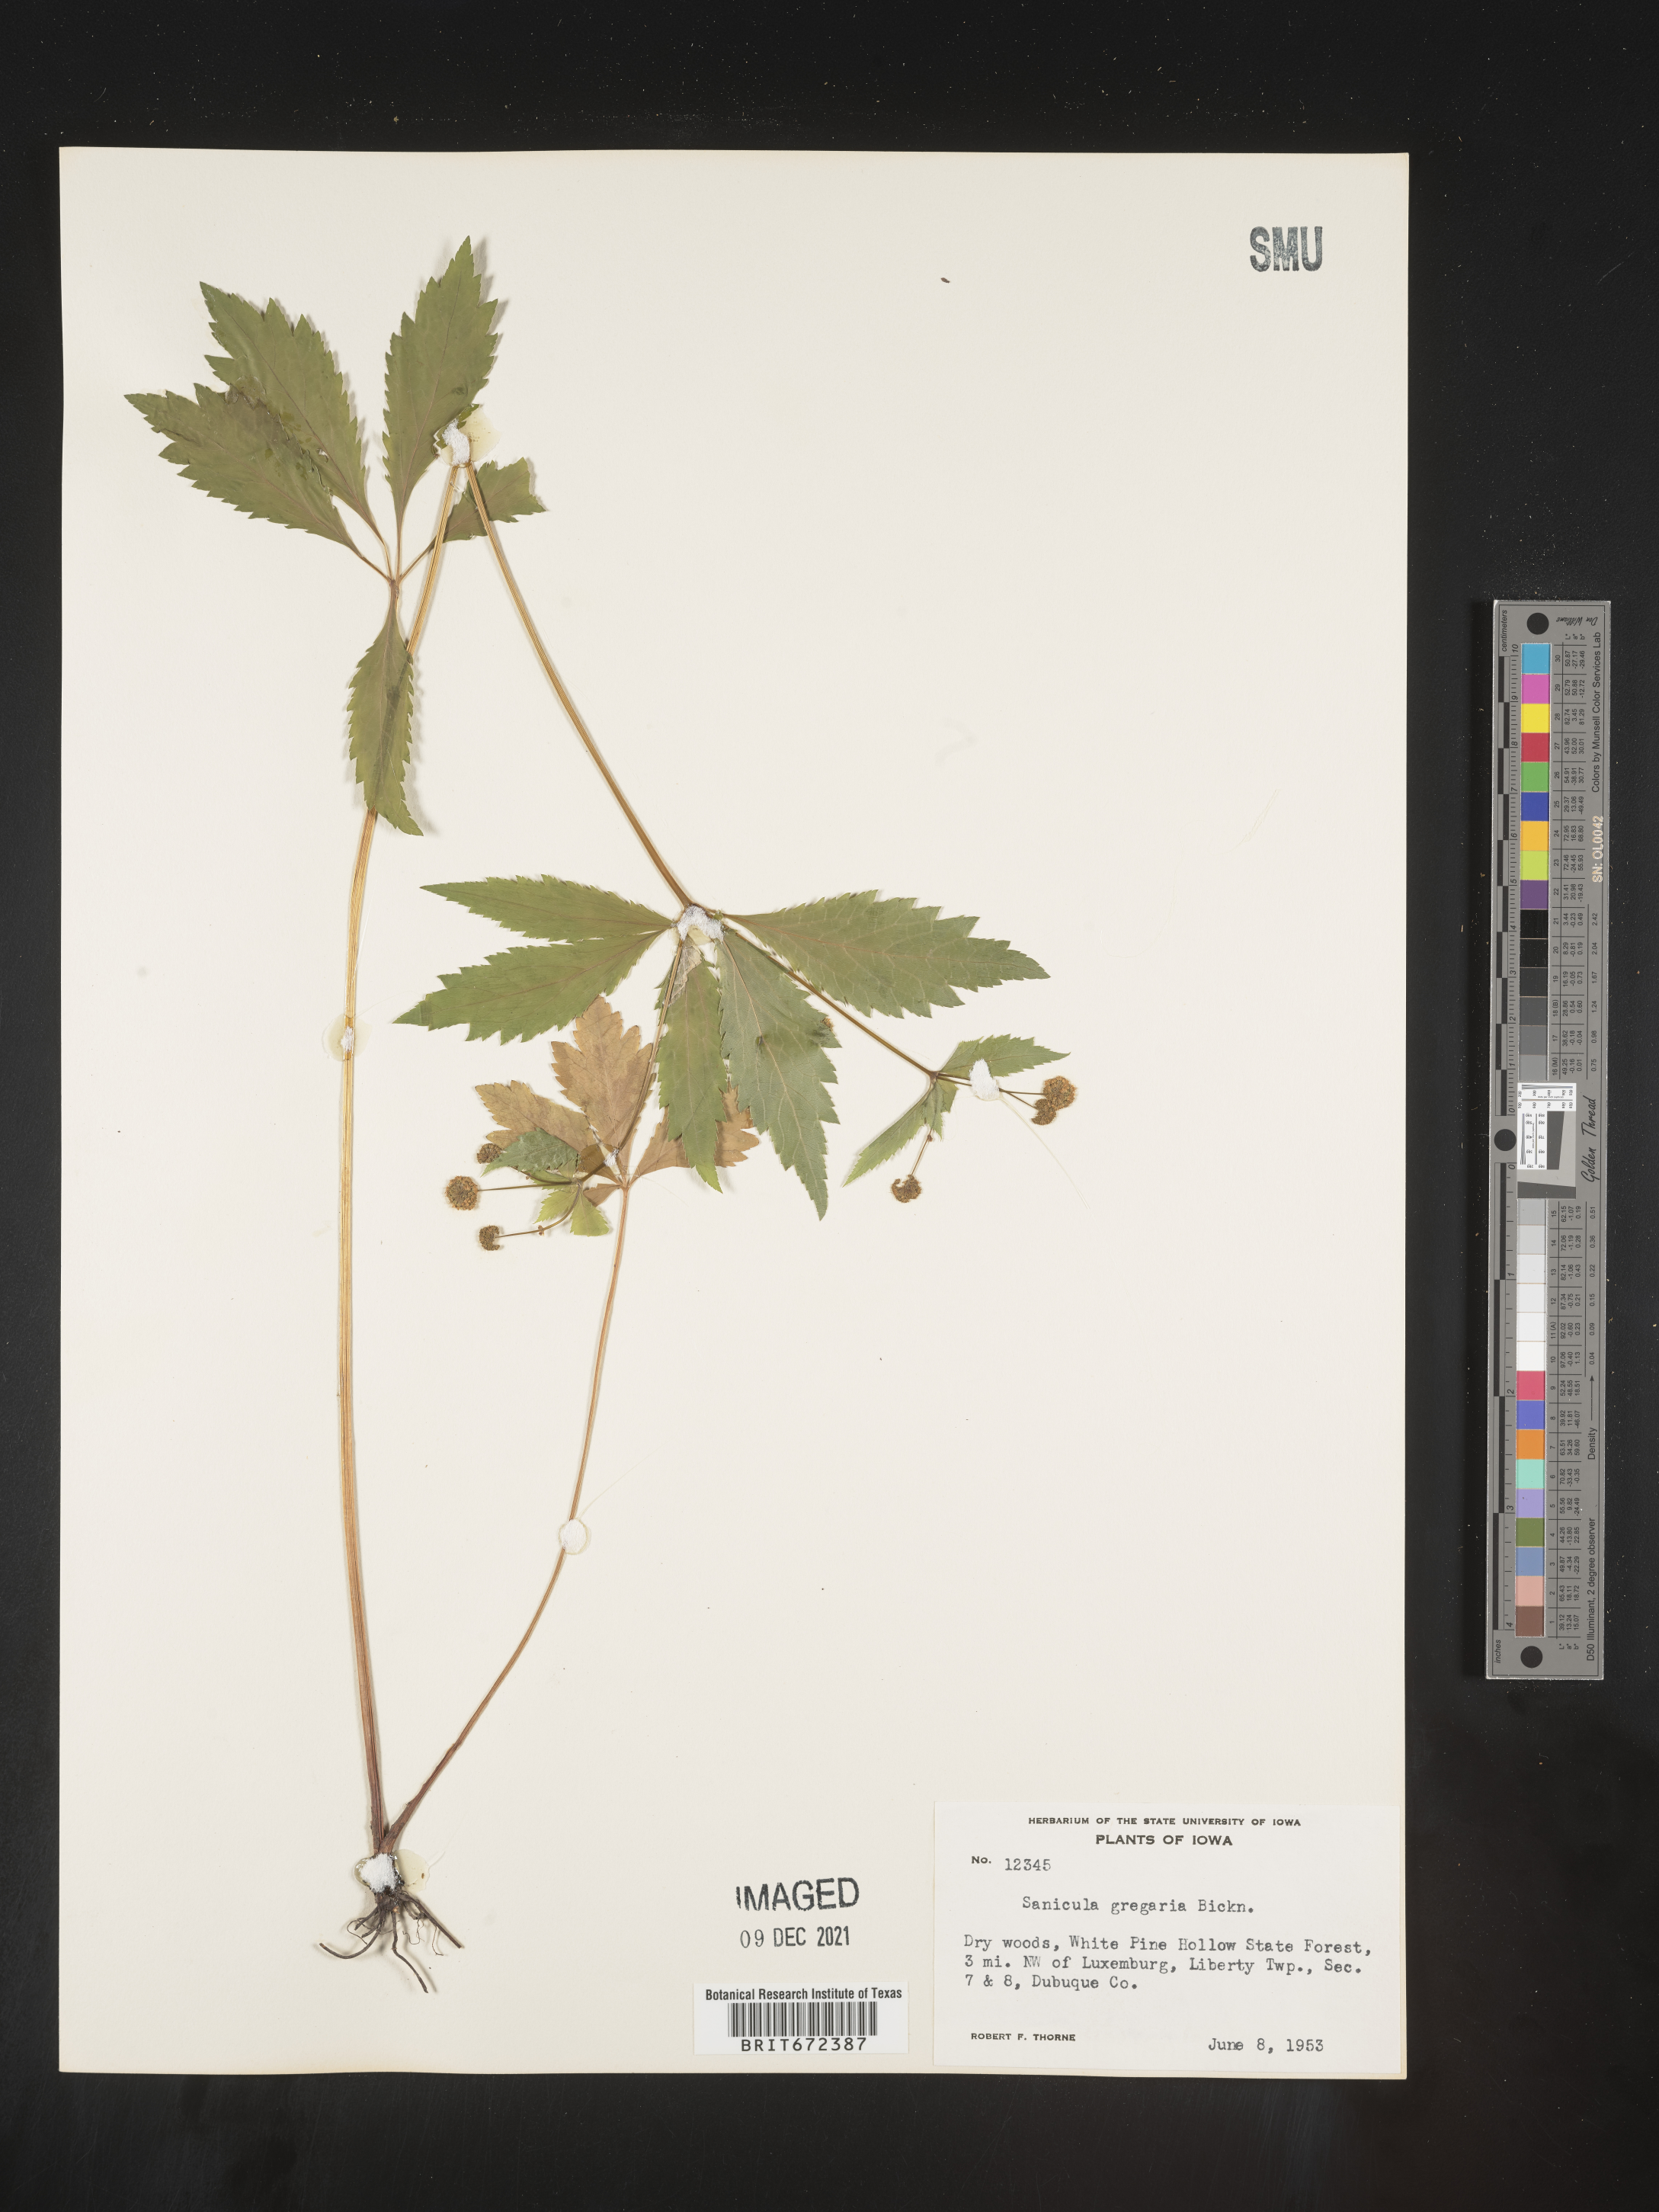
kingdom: Plantae
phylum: Tracheophyta
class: Magnoliopsida
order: Apiales
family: Apiaceae
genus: Sanicula
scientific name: Sanicula odorata
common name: Cluster sanicle
